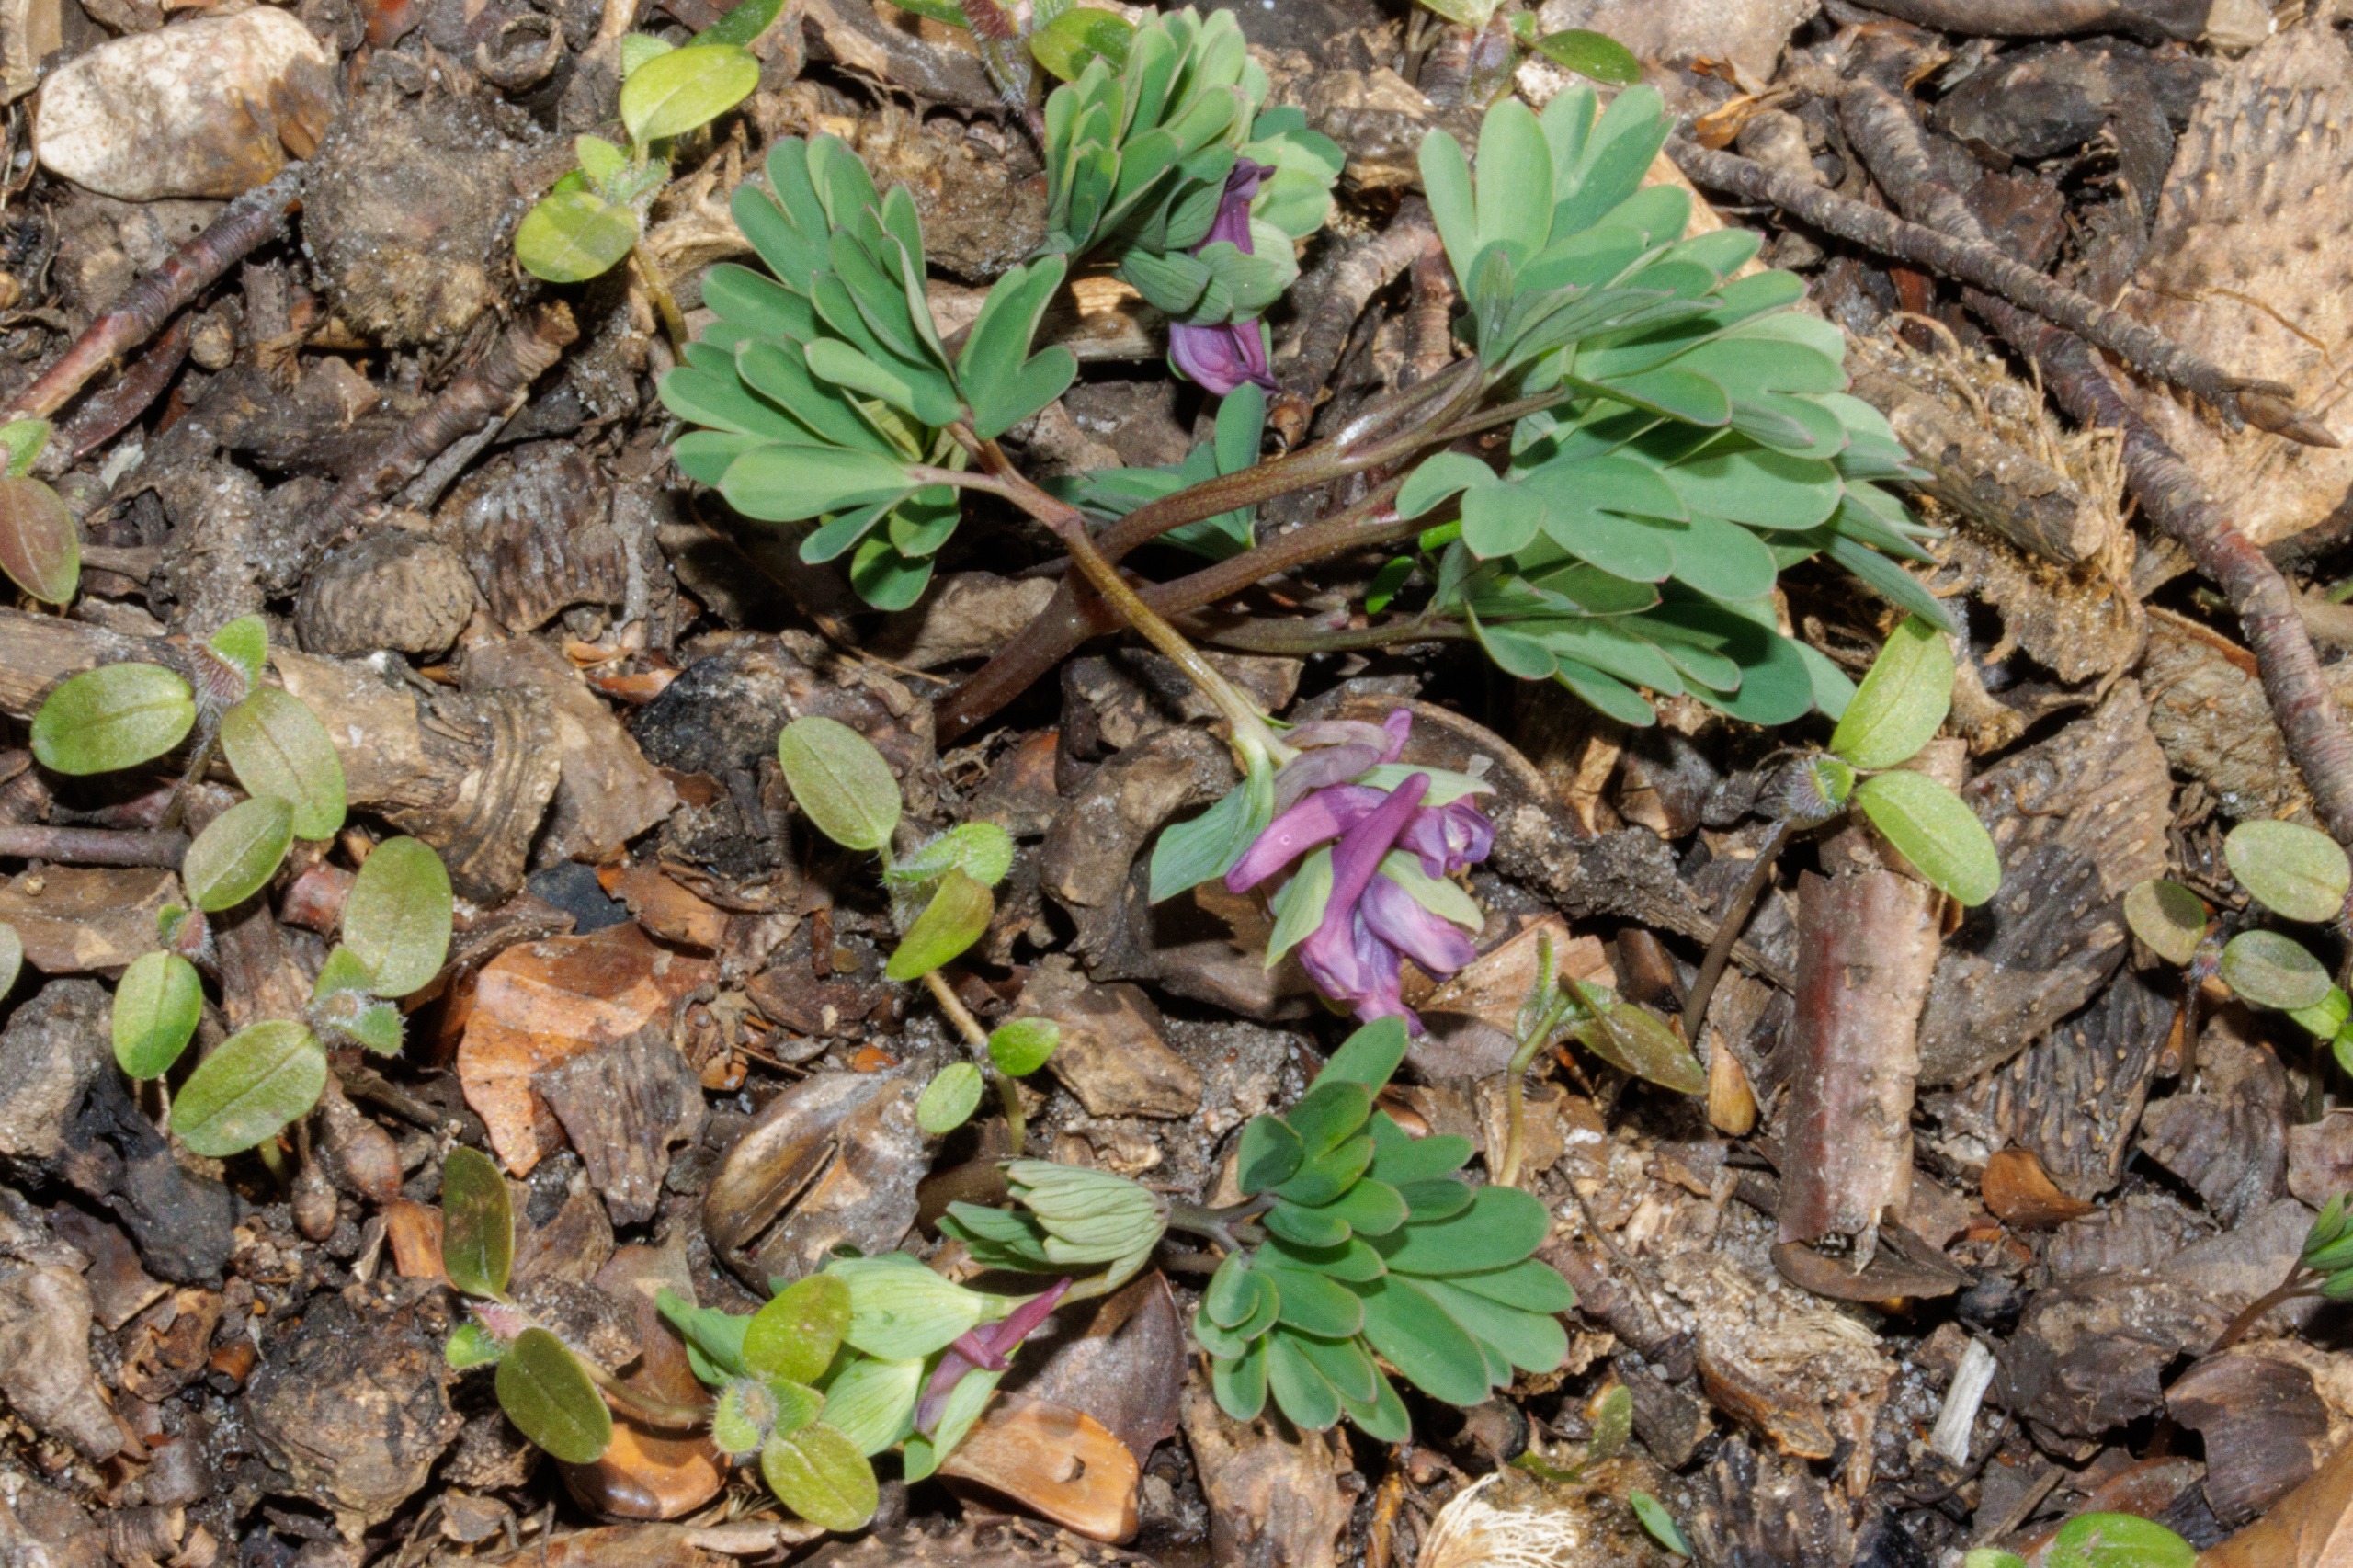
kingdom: Plantae
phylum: Tracheophyta
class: Magnoliopsida
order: Ranunculales
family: Papaveraceae
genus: Corydalis
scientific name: Corydalis intermedia
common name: Liden lærkespore
